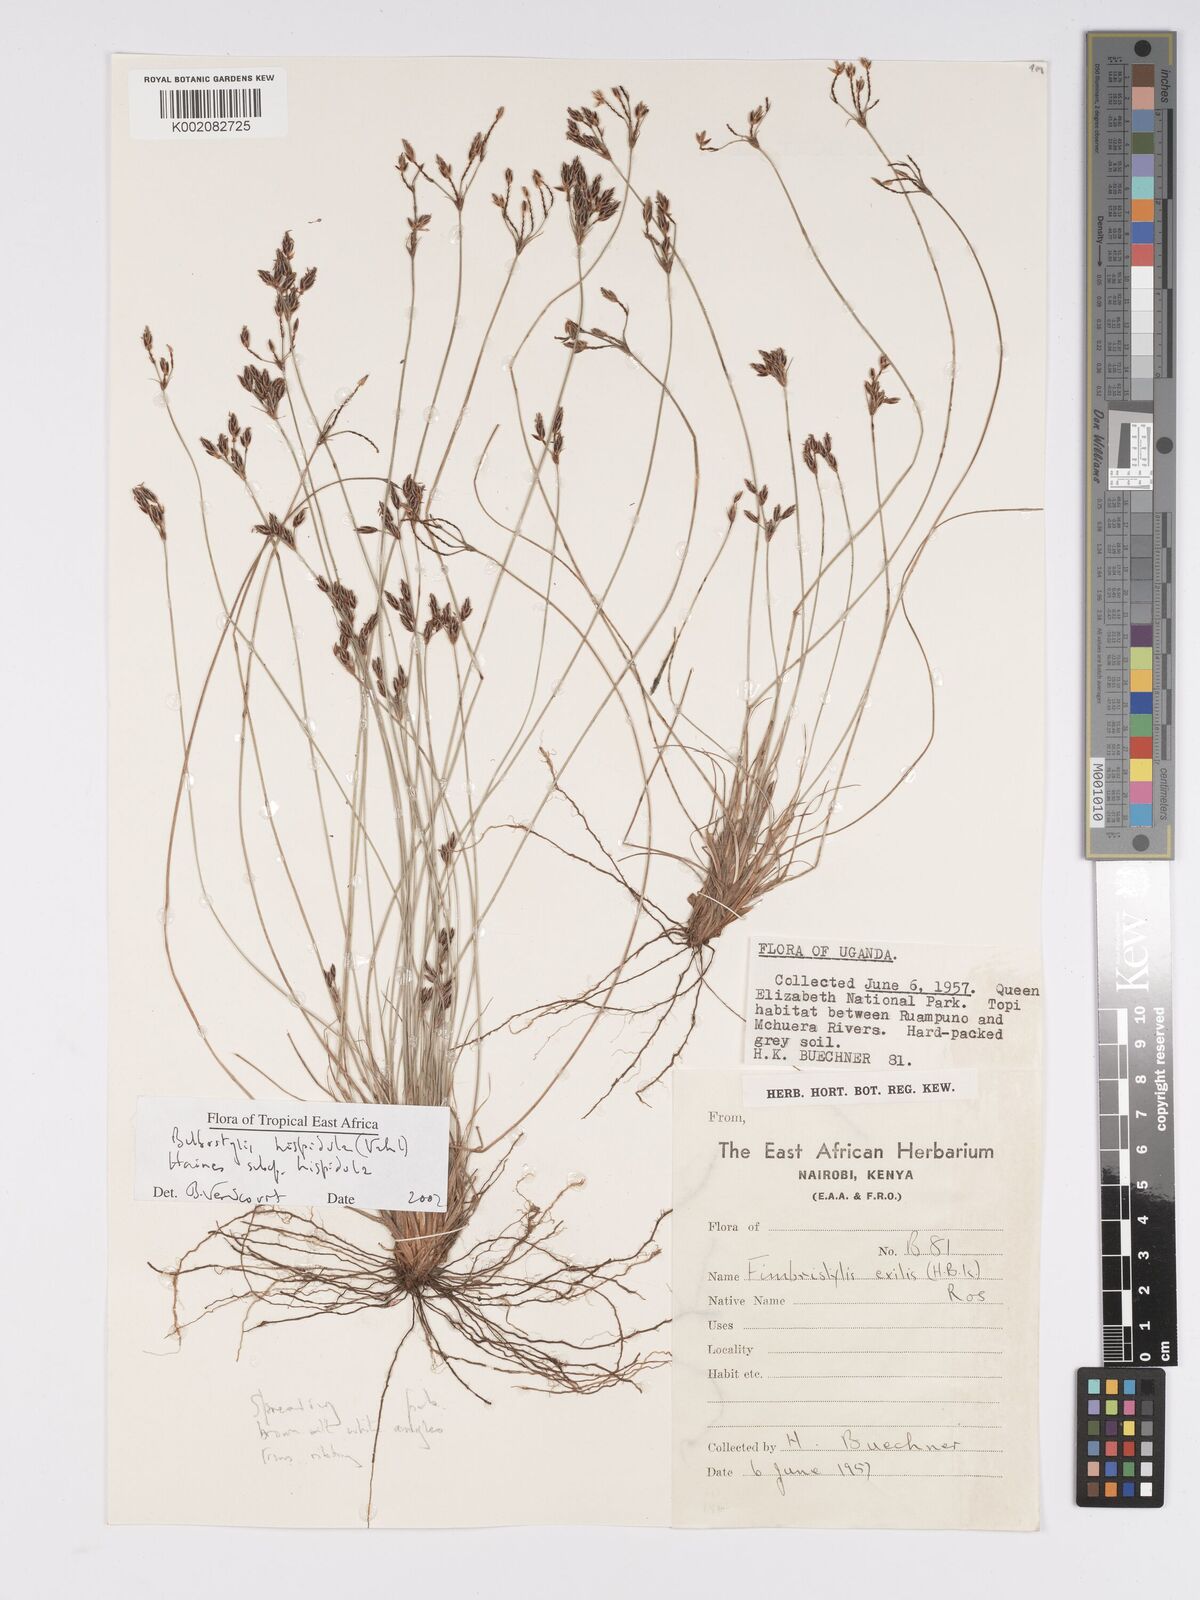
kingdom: Plantae
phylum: Tracheophyta
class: Liliopsida
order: Poales
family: Cyperaceae
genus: Bulbostylis
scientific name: Bulbostylis
